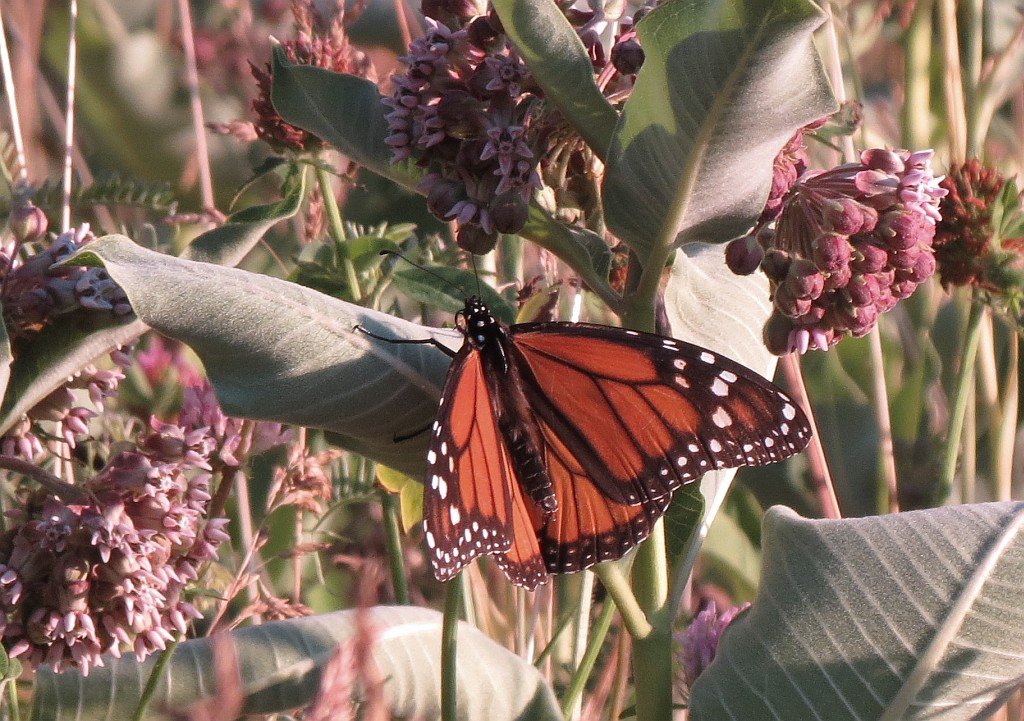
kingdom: Animalia
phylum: Arthropoda
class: Insecta
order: Lepidoptera
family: Nymphalidae
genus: Danaus
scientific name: Danaus plexippus
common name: Monarch
